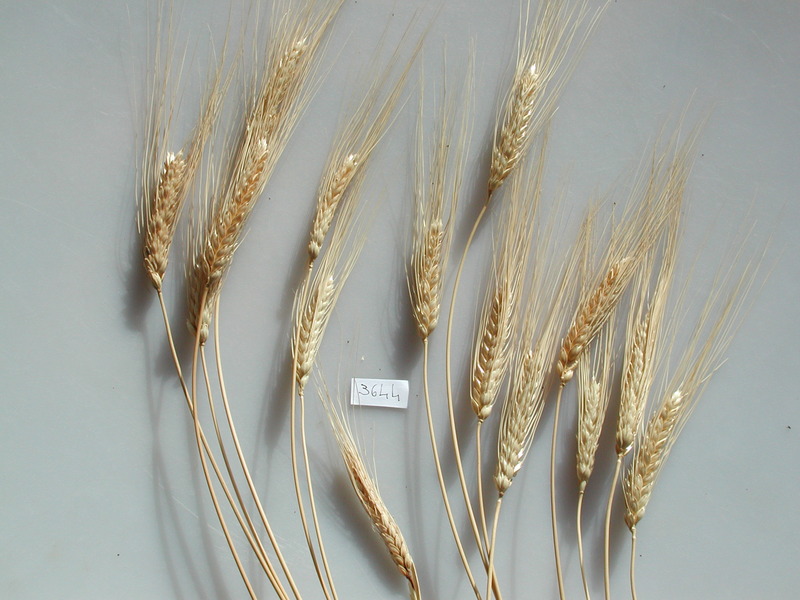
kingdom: Plantae
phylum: Tracheophyta
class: Liliopsida
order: Poales
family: Poaceae
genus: Triticum
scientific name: Triticum
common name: Wheat
